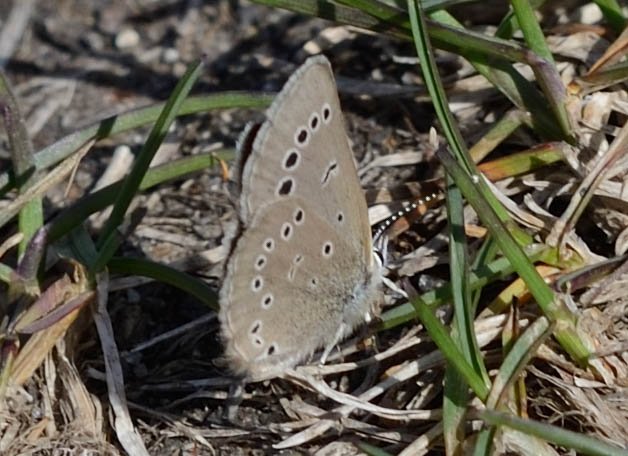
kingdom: Animalia
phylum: Arthropoda
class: Insecta
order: Lepidoptera
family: Lycaenidae
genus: Glaucopsyche
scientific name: Glaucopsyche lygdamus
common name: Silvery Blue
